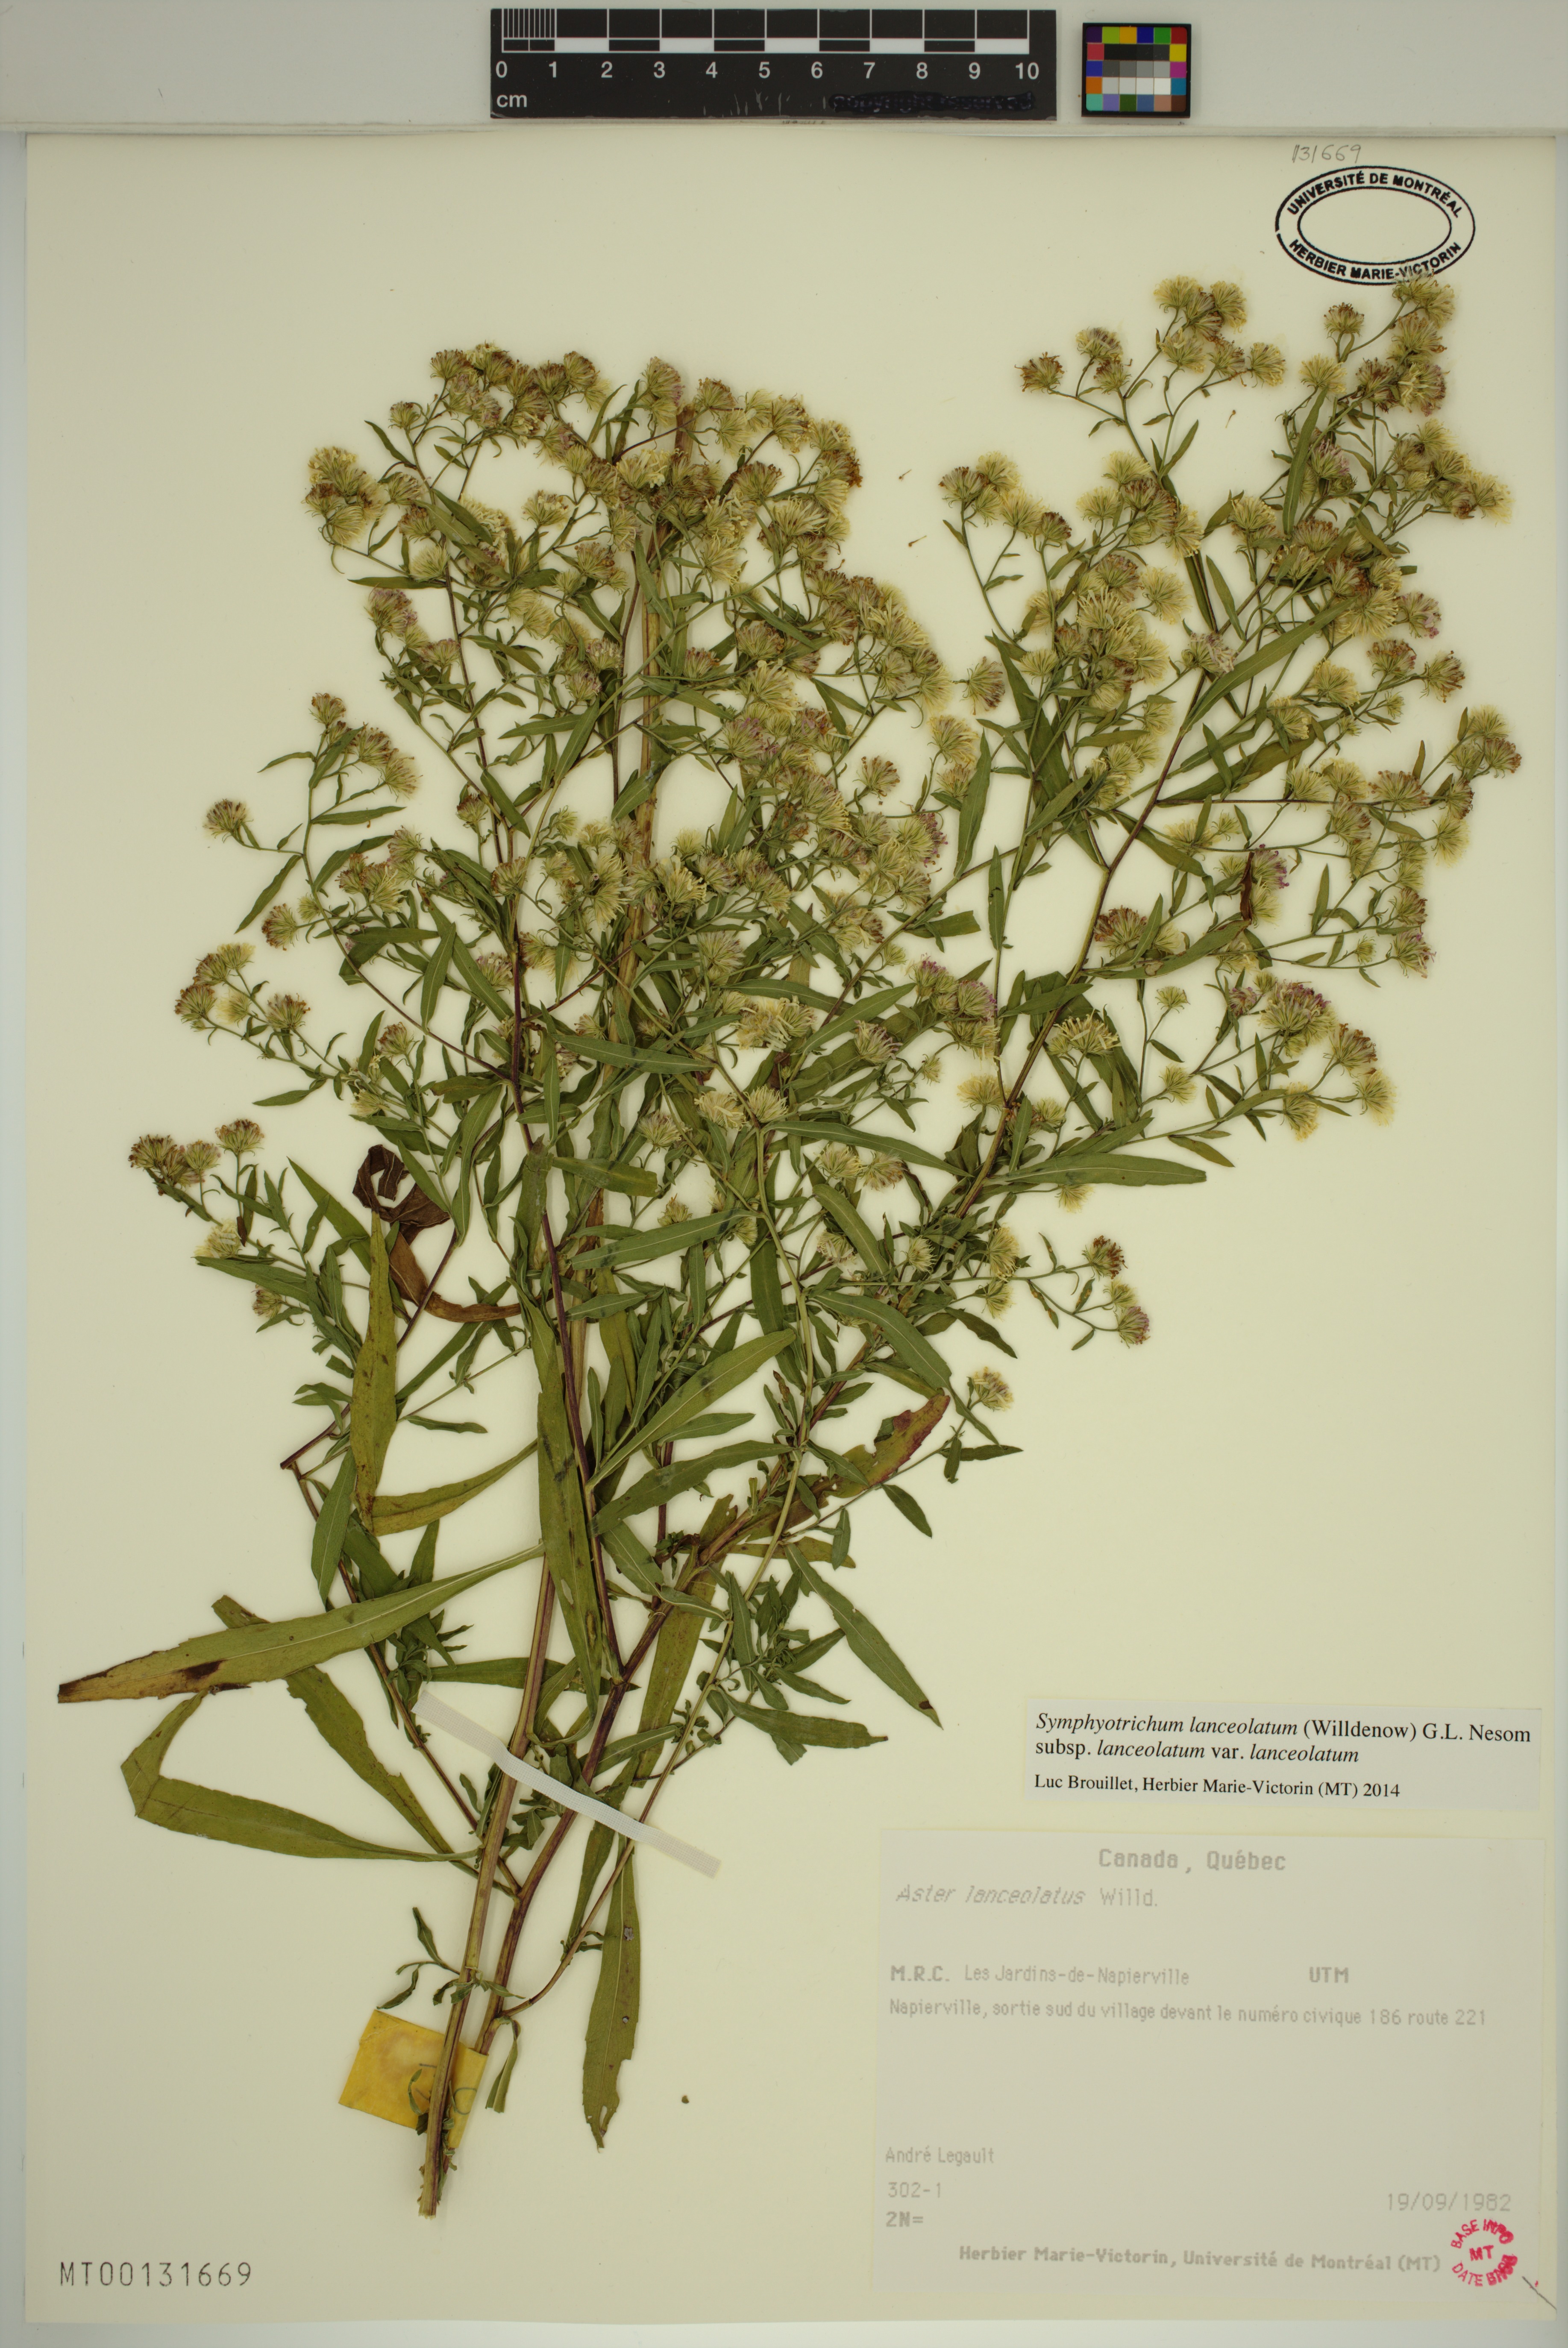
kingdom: Plantae
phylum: Tracheophyta
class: Magnoliopsida
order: Asterales
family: Asteraceae
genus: Symphyotrichum
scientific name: Symphyotrichum lanceolatum
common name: Panicled aster
